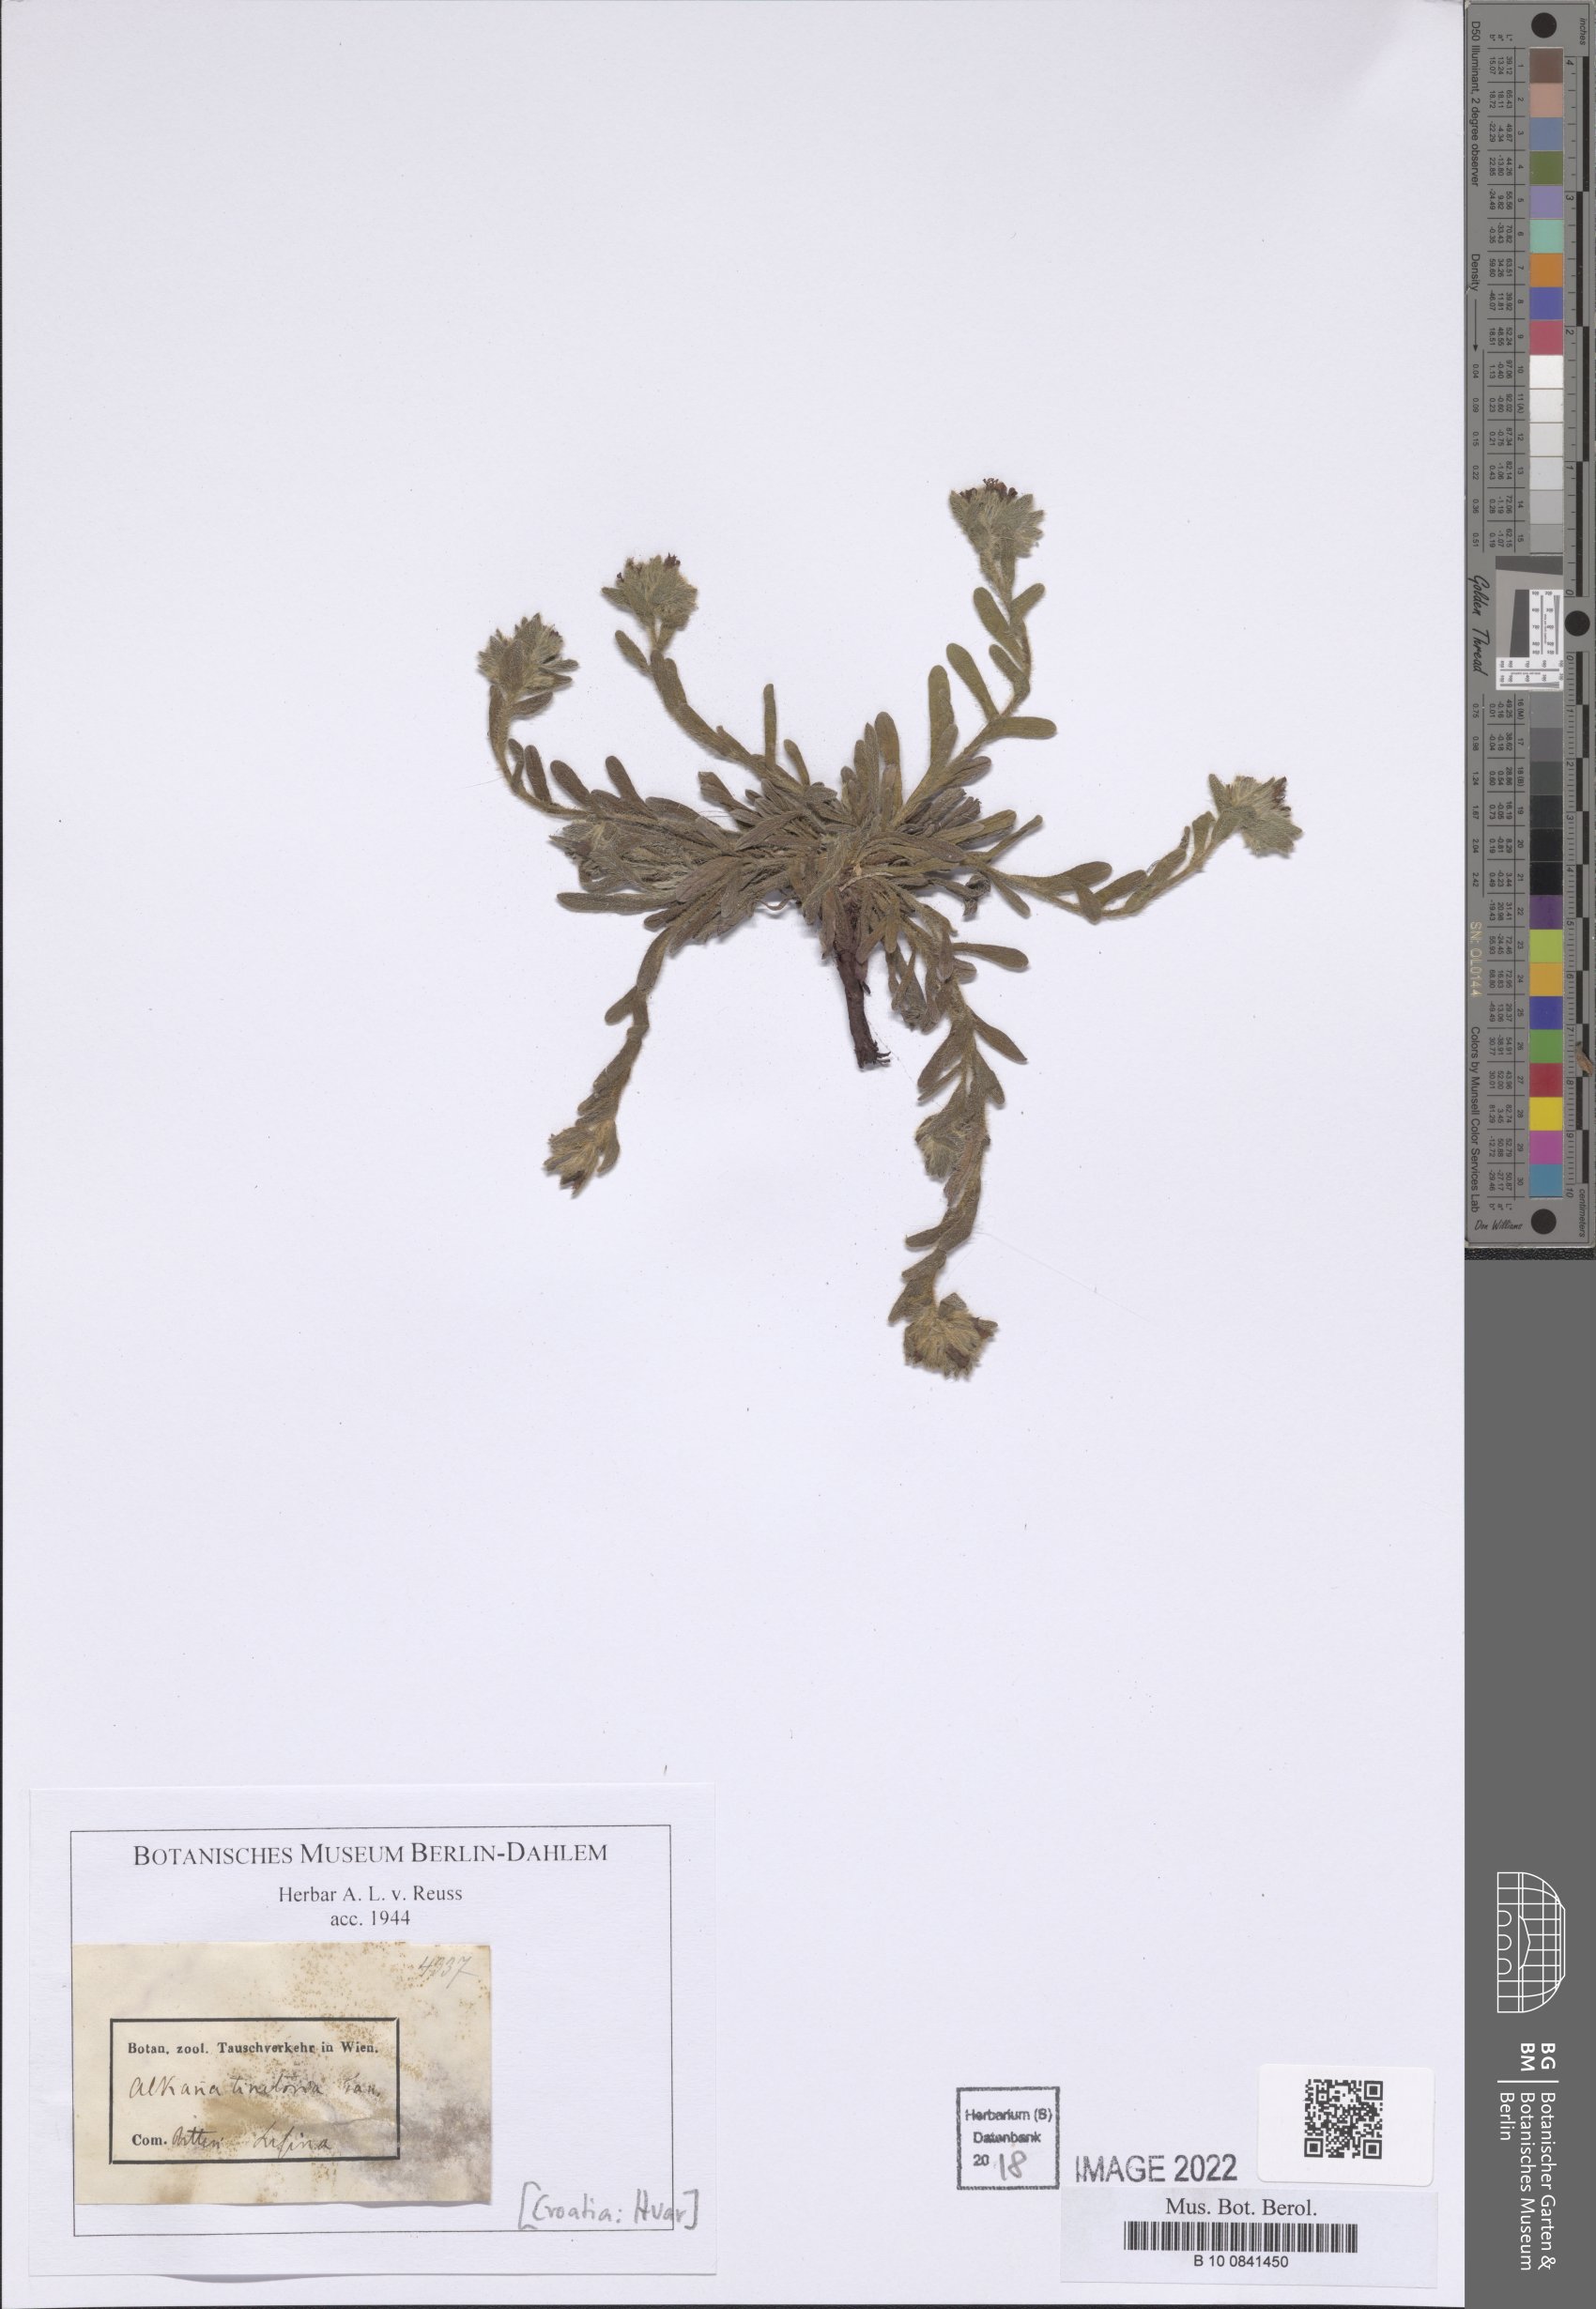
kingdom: Plantae
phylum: Tracheophyta
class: Magnoliopsida
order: Boraginales
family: Boraginaceae
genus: Alkanna
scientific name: Alkanna tinctoria
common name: Dyer's-alkanet
